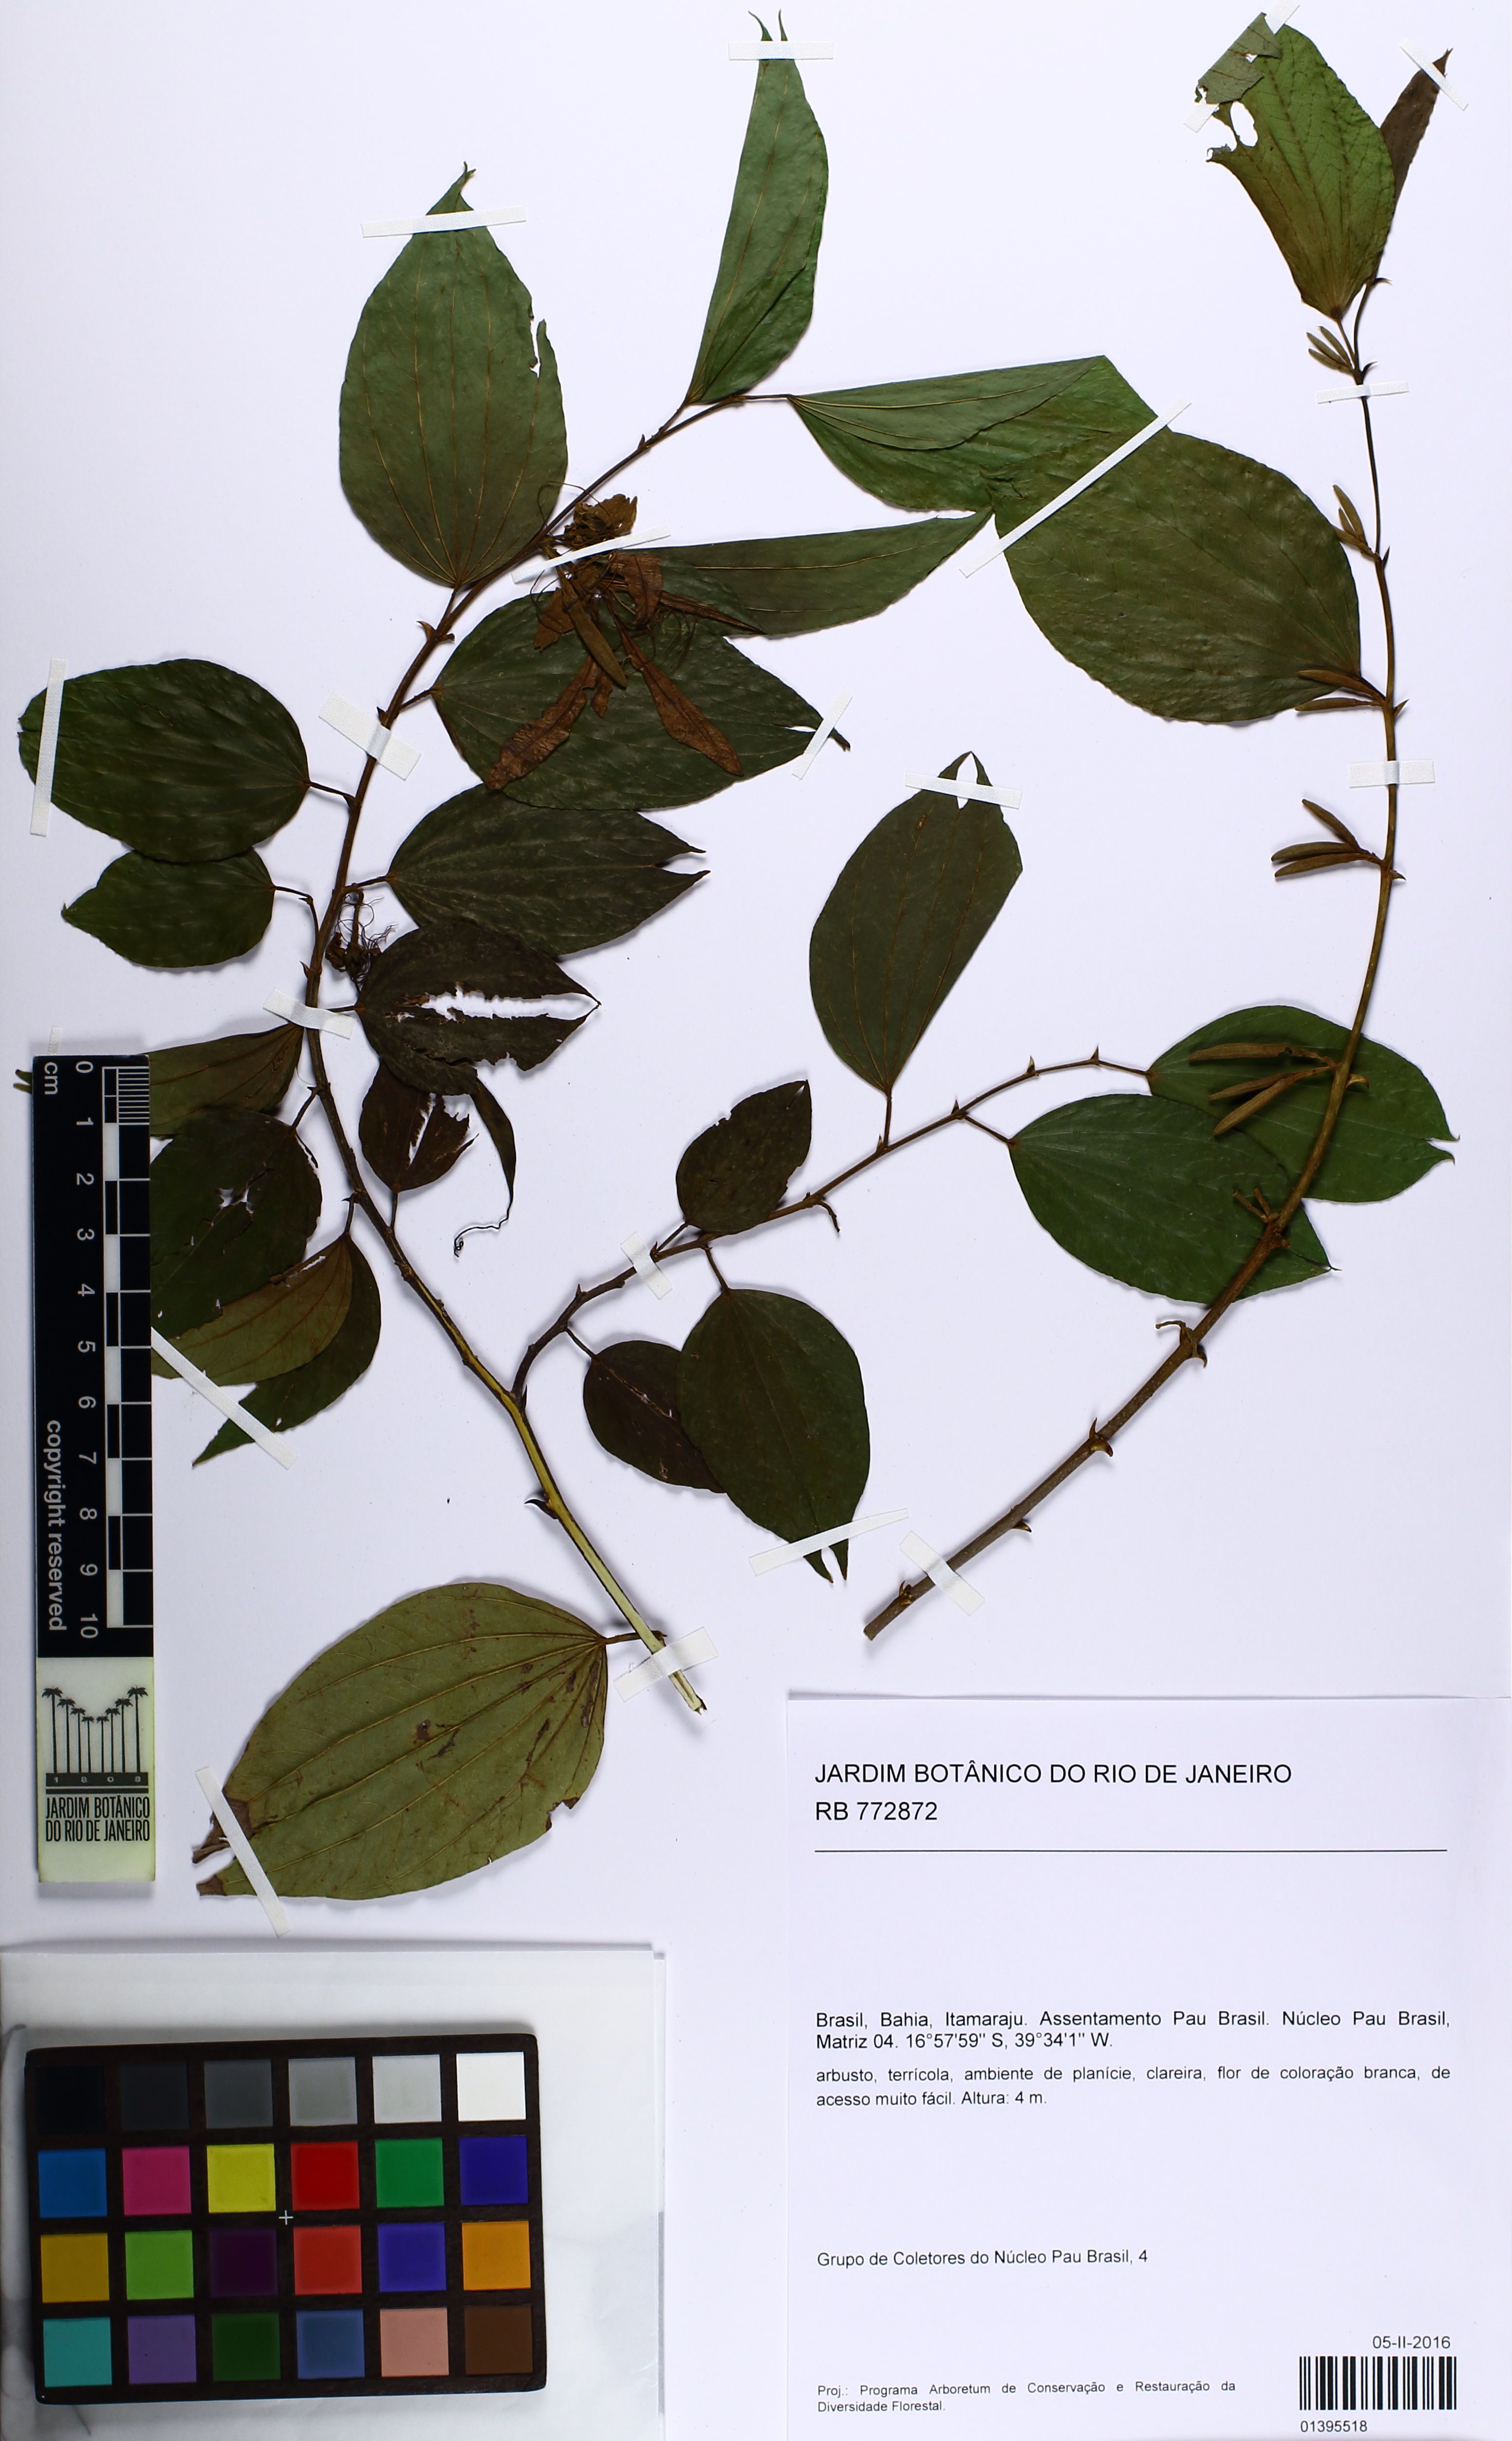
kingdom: Plantae
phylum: Tracheophyta
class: Magnoliopsida
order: Fabales
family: Fabaceae
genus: Bauhinia
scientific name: Bauhinia
